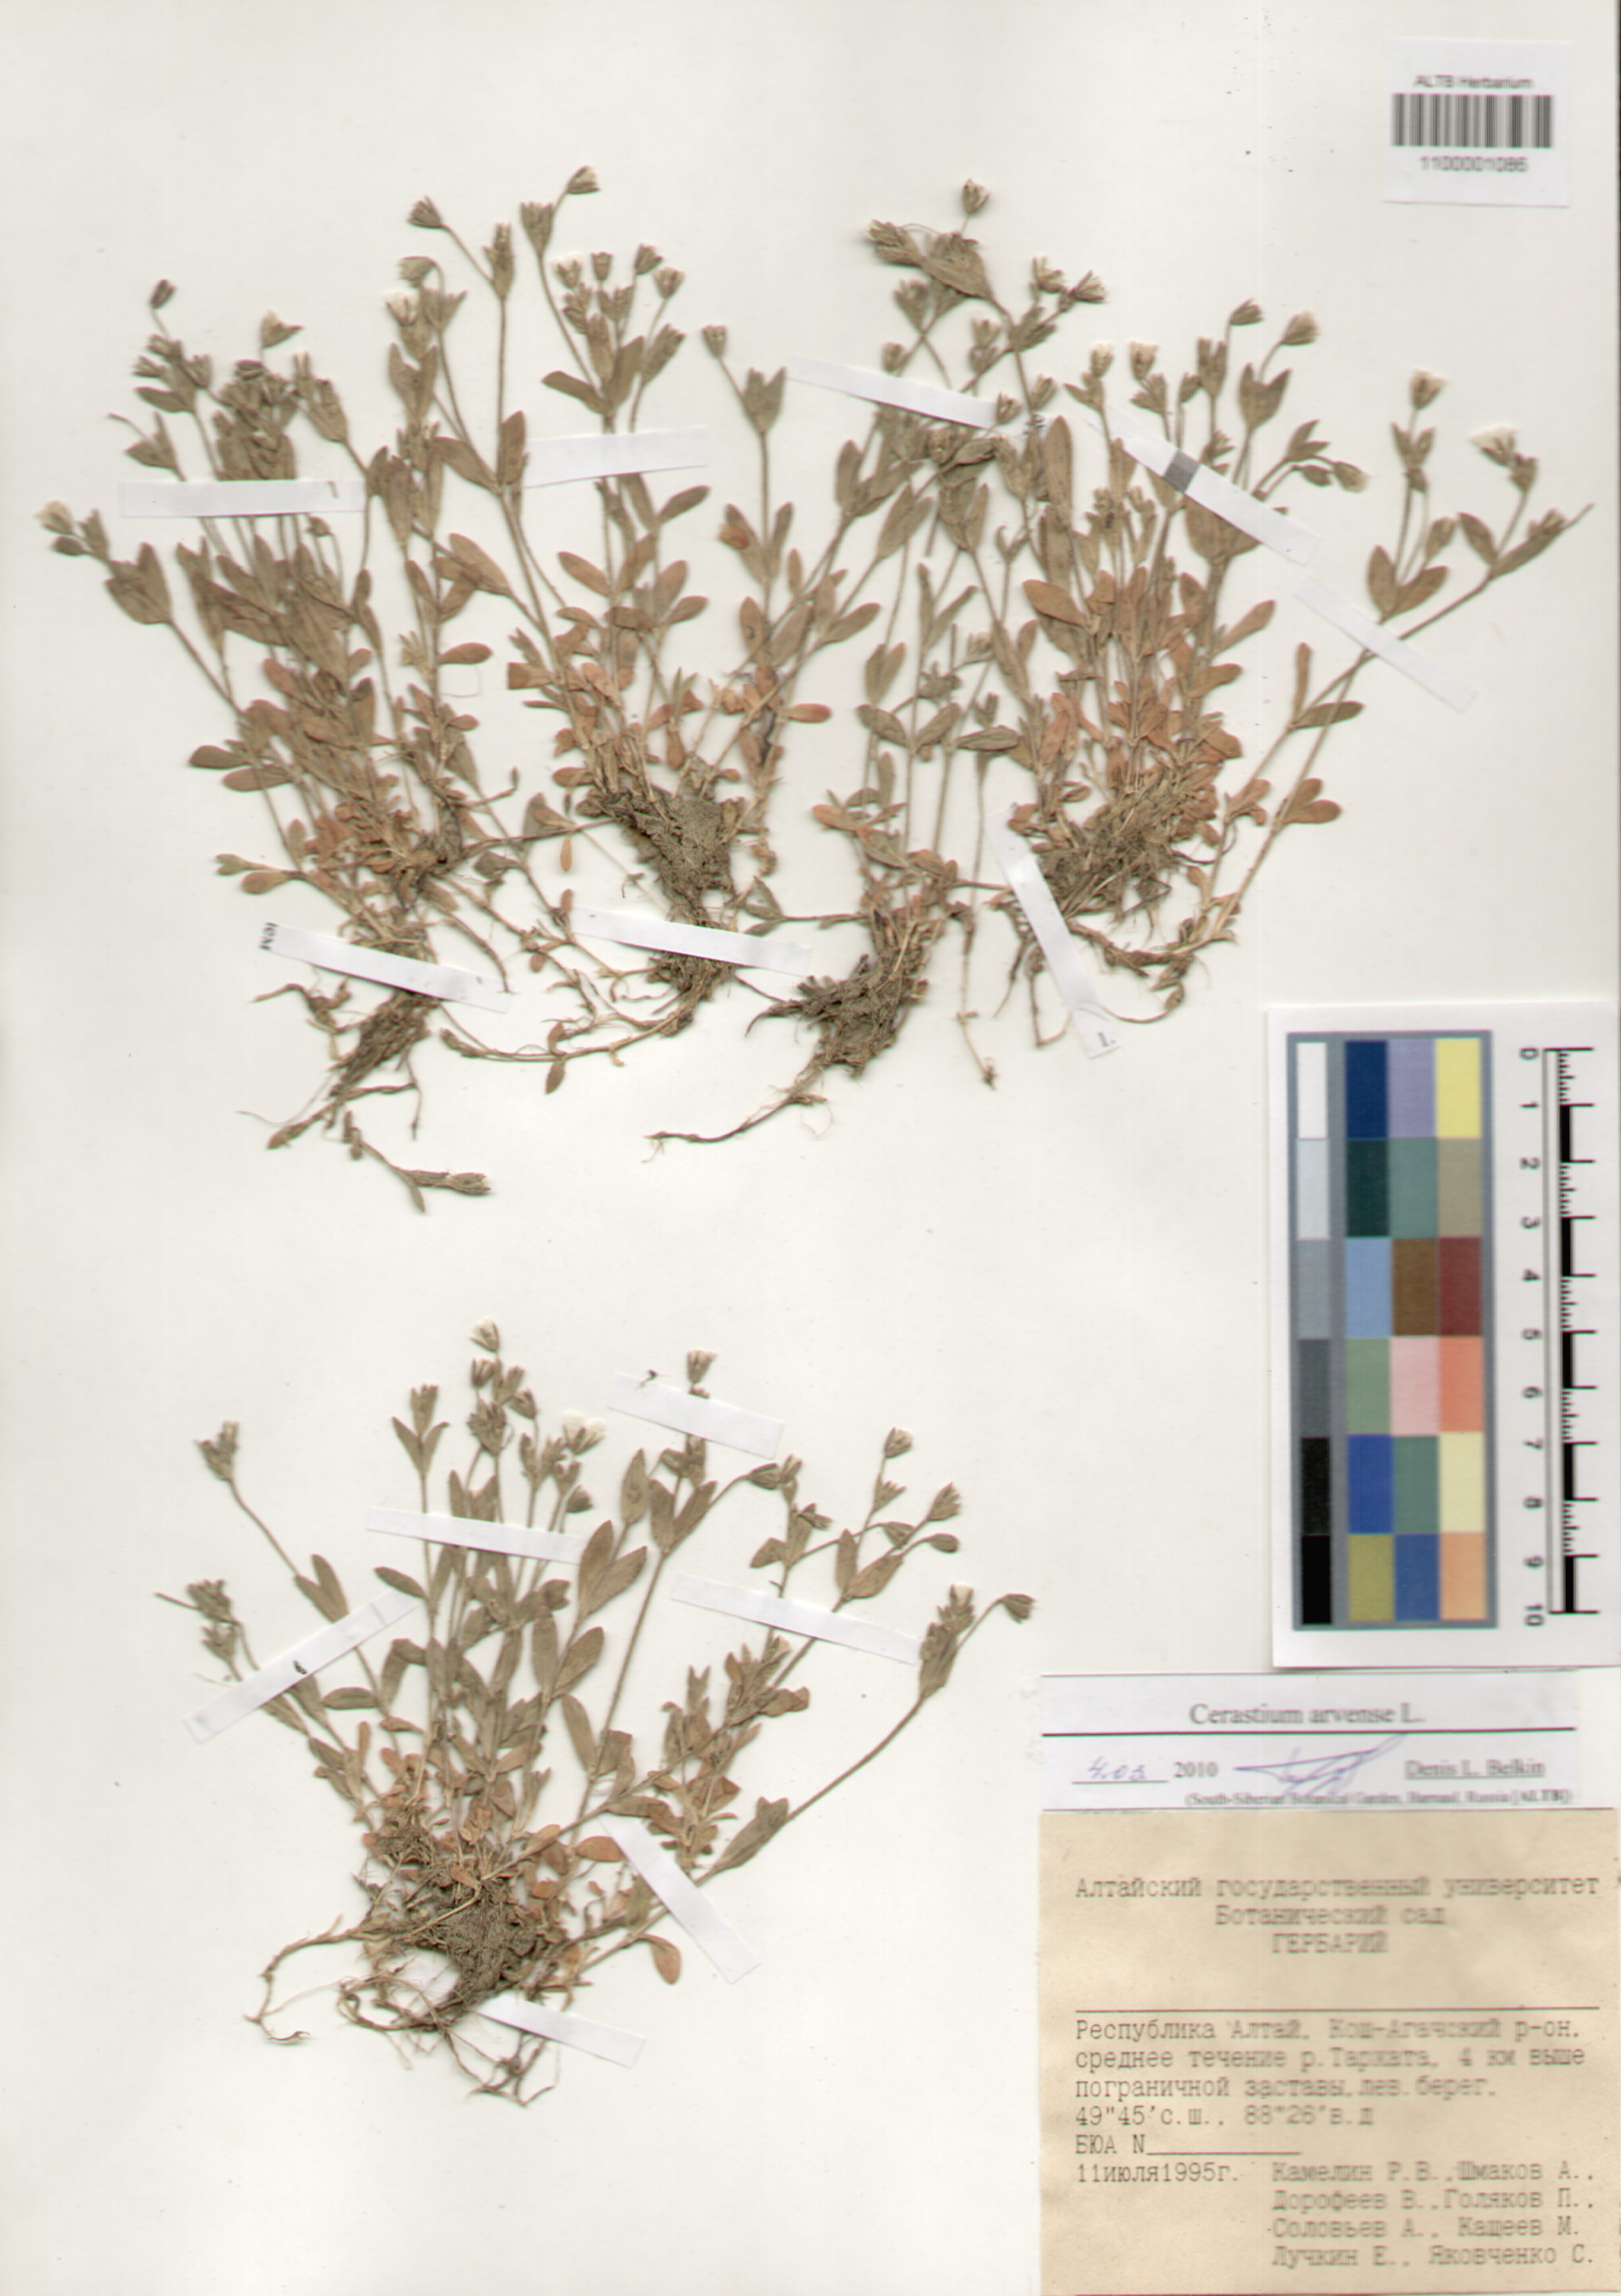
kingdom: Plantae
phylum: Tracheophyta
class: Magnoliopsida
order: Caryophyllales
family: Caryophyllaceae
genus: Cerastium
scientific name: Cerastium arvense
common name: Field mouse-ear
